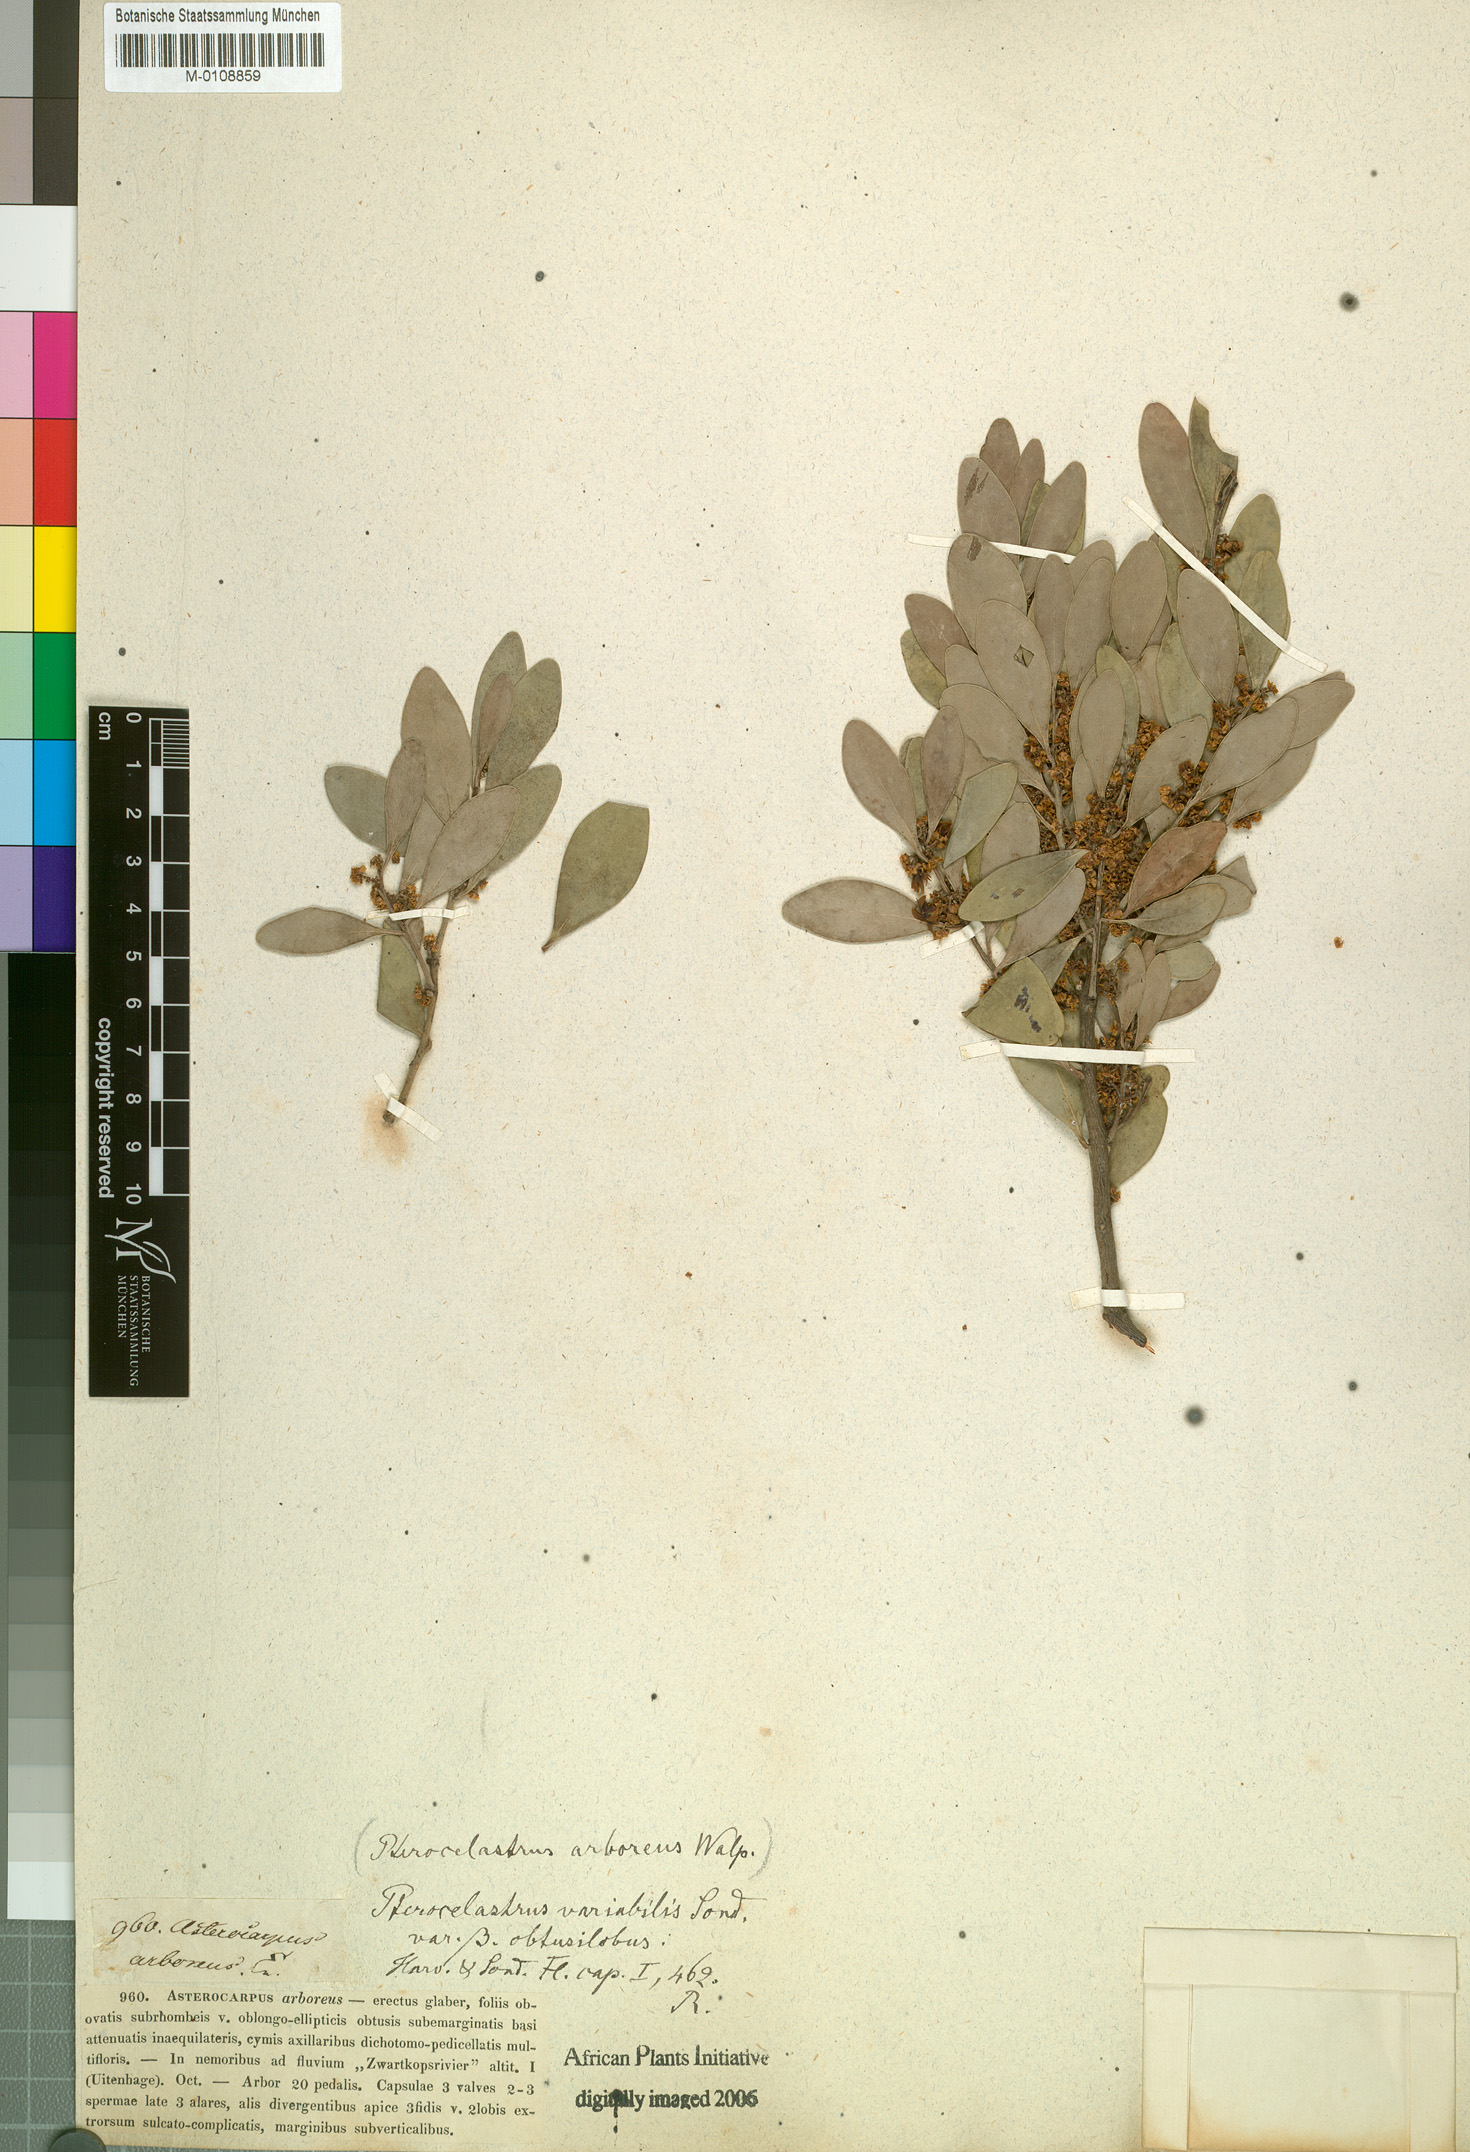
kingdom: Plantae
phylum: Tracheophyta
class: Magnoliopsida
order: Celastrales
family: Celastraceae
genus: Pterocelastrus
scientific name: Pterocelastrus
